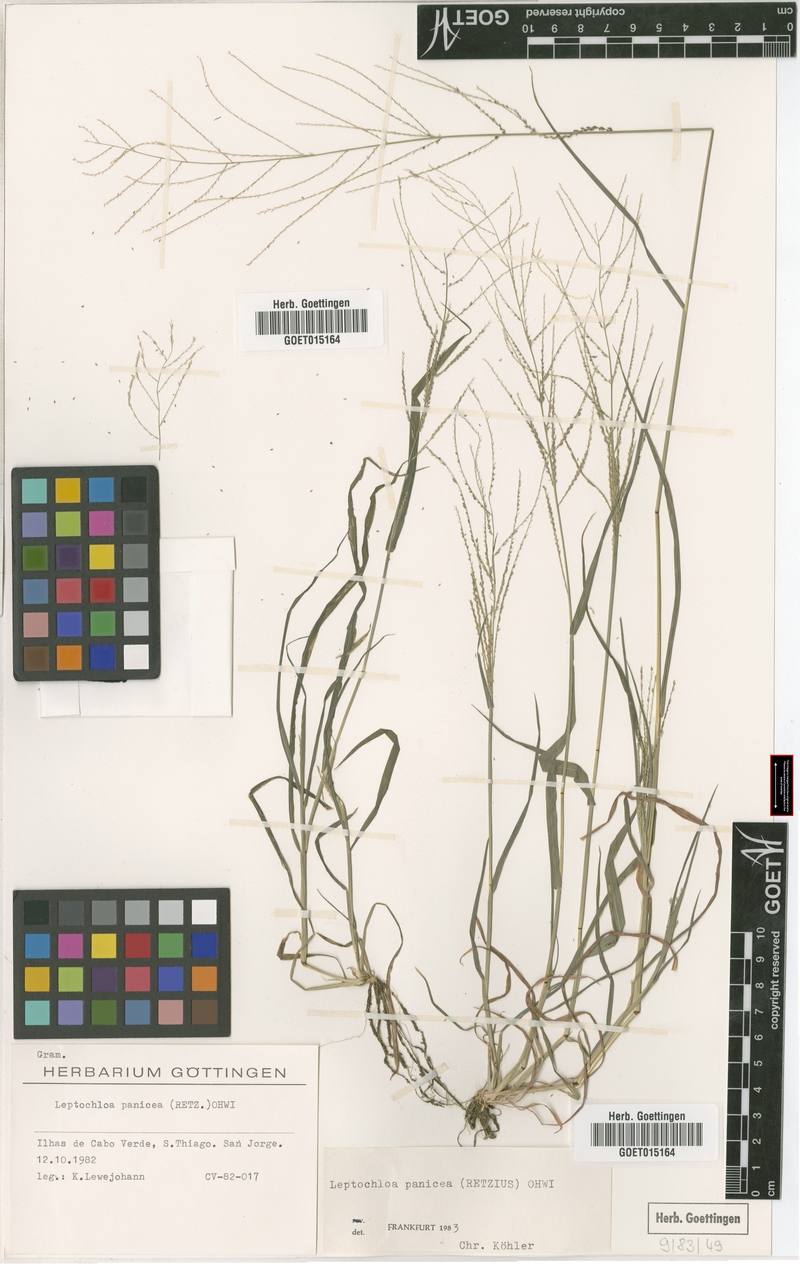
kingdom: Plantae
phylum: Tracheophyta
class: Liliopsida
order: Poales
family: Poaceae
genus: Leptochloa
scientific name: Leptochloa panicea
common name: Mucronate sprangletop
